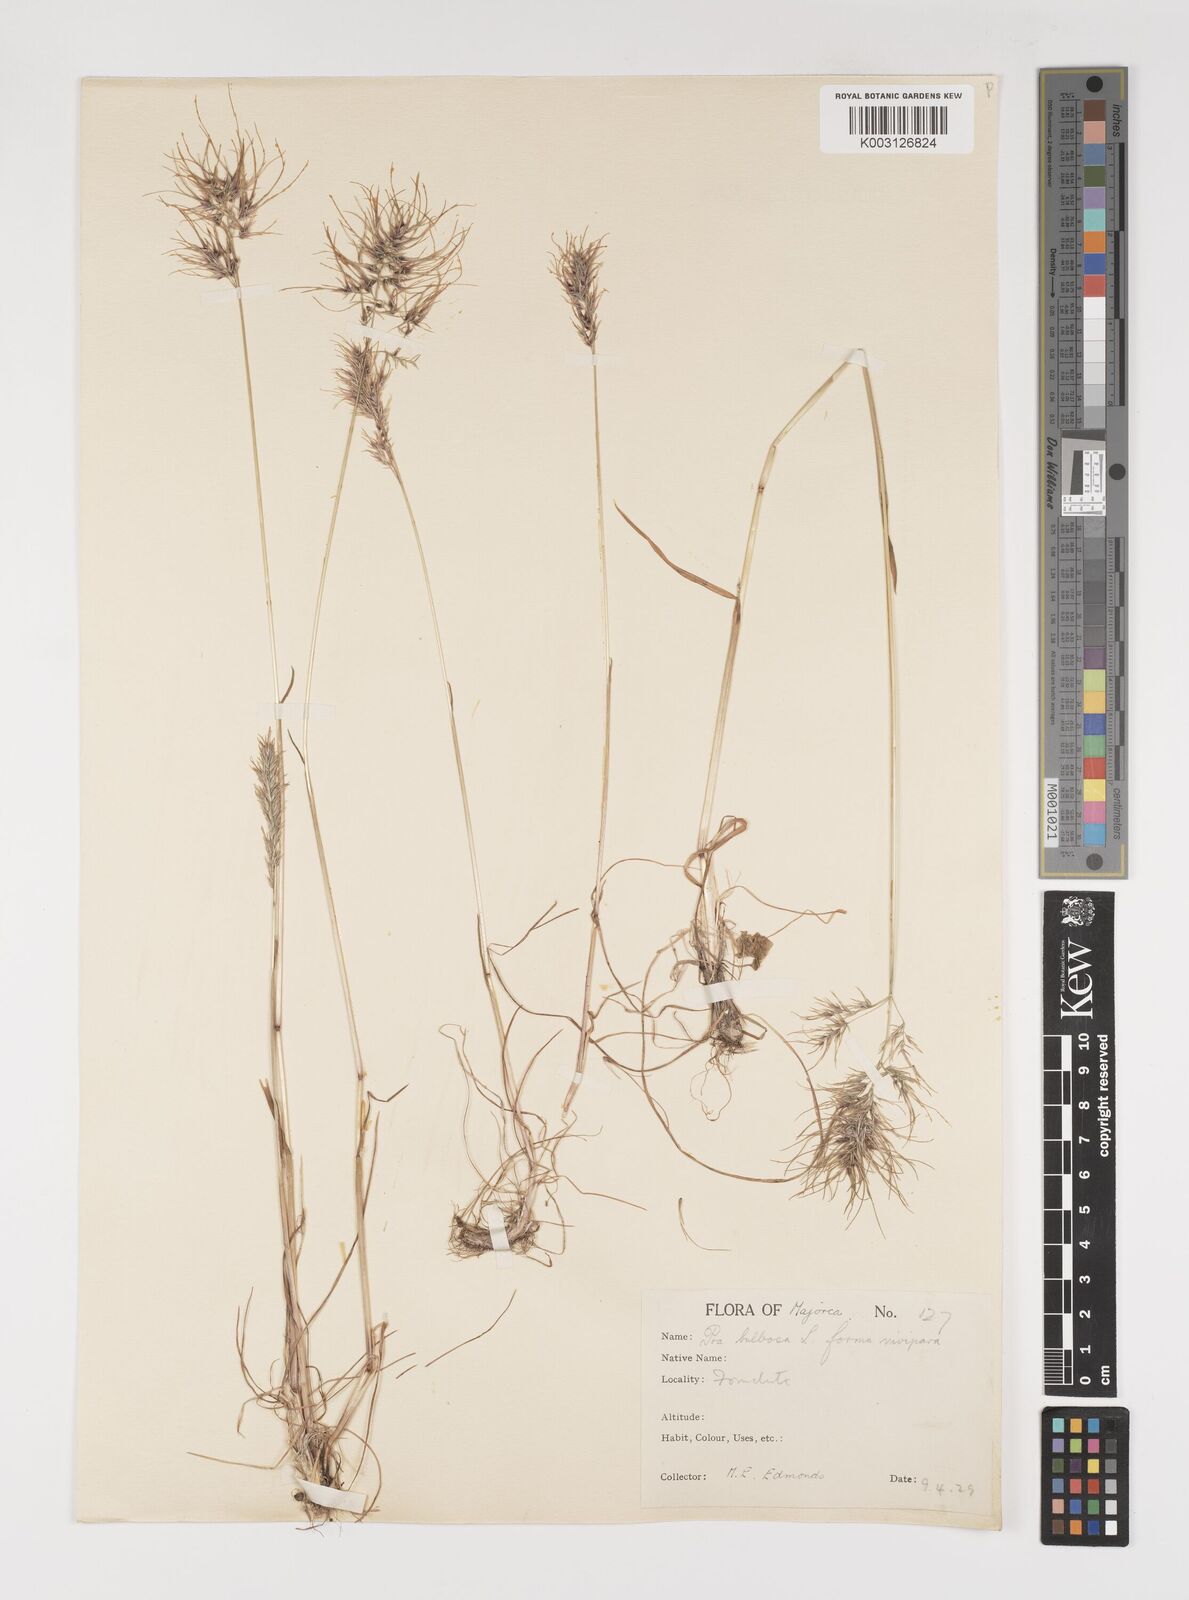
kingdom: Plantae
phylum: Tracheophyta
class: Liliopsida
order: Poales
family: Poaceae
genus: Poa
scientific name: Poa bulbosa
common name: Bulbous bluegrass
